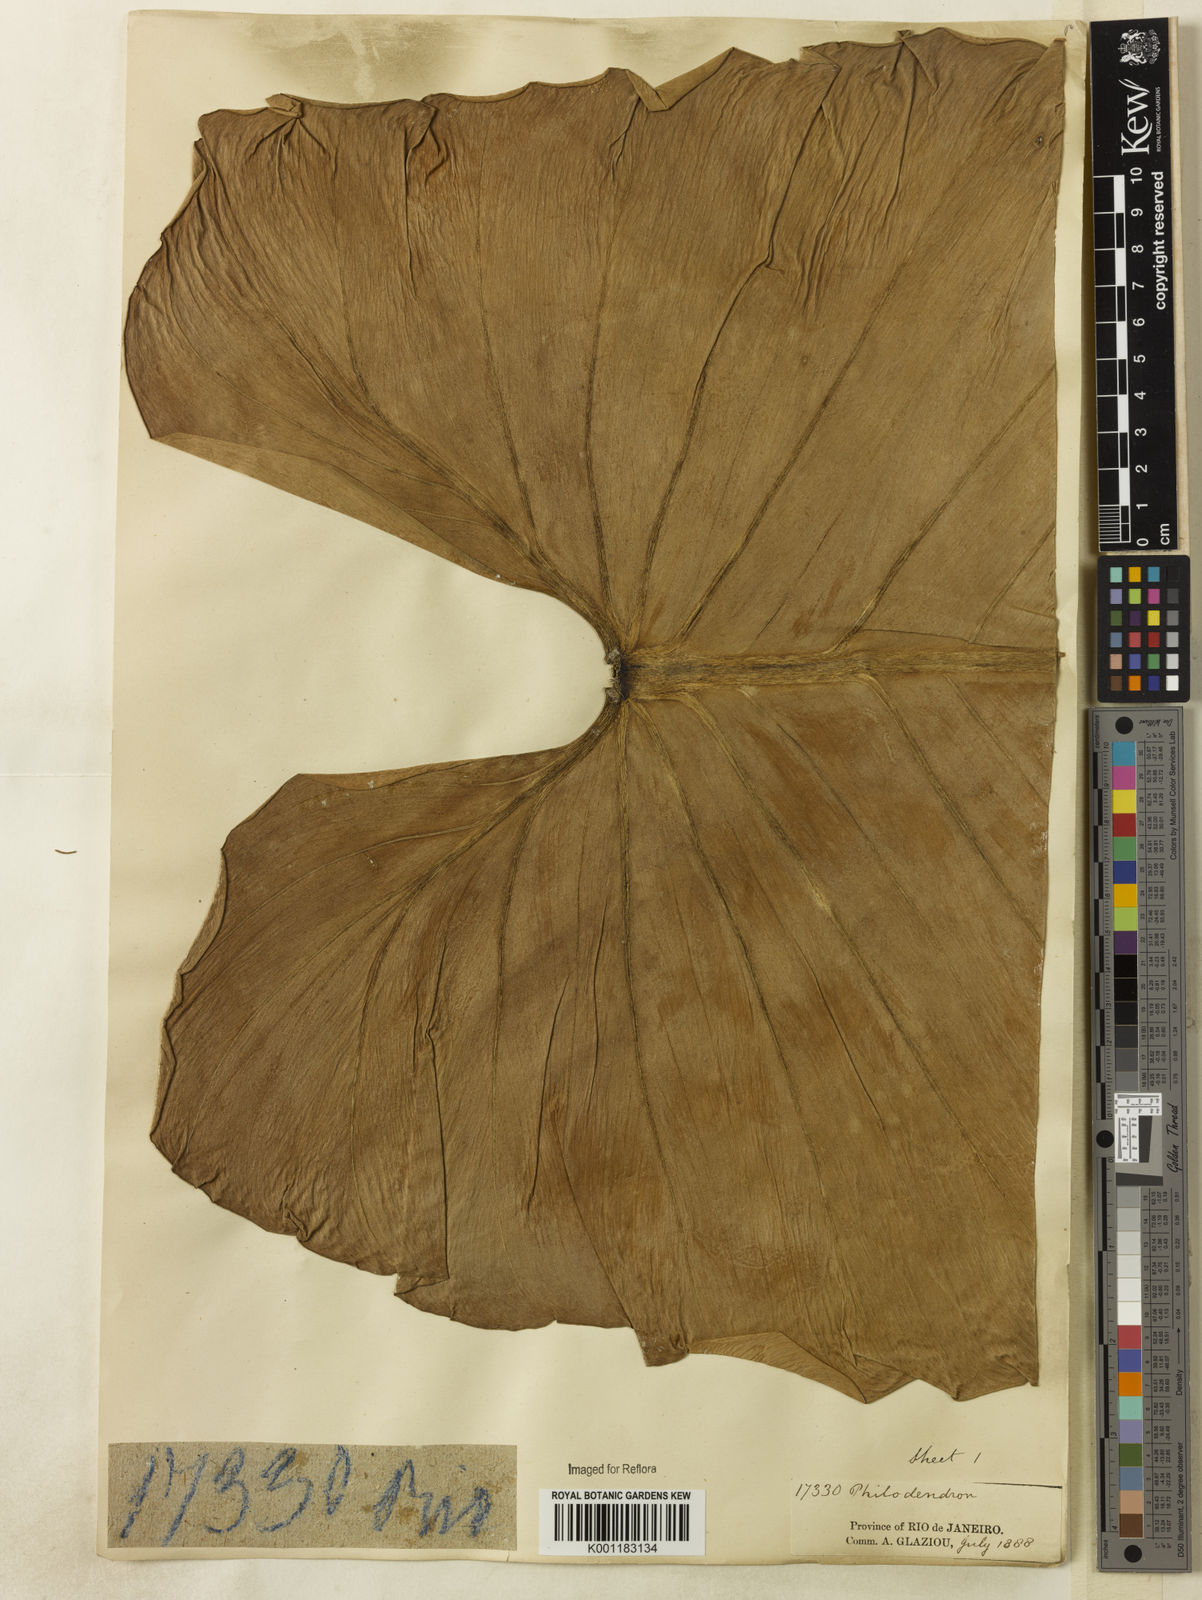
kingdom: Plantae
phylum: Tracheophyta
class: Liliopsida
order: Alismatales
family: Araceae
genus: Philodendron
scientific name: Philodendron cordatum
